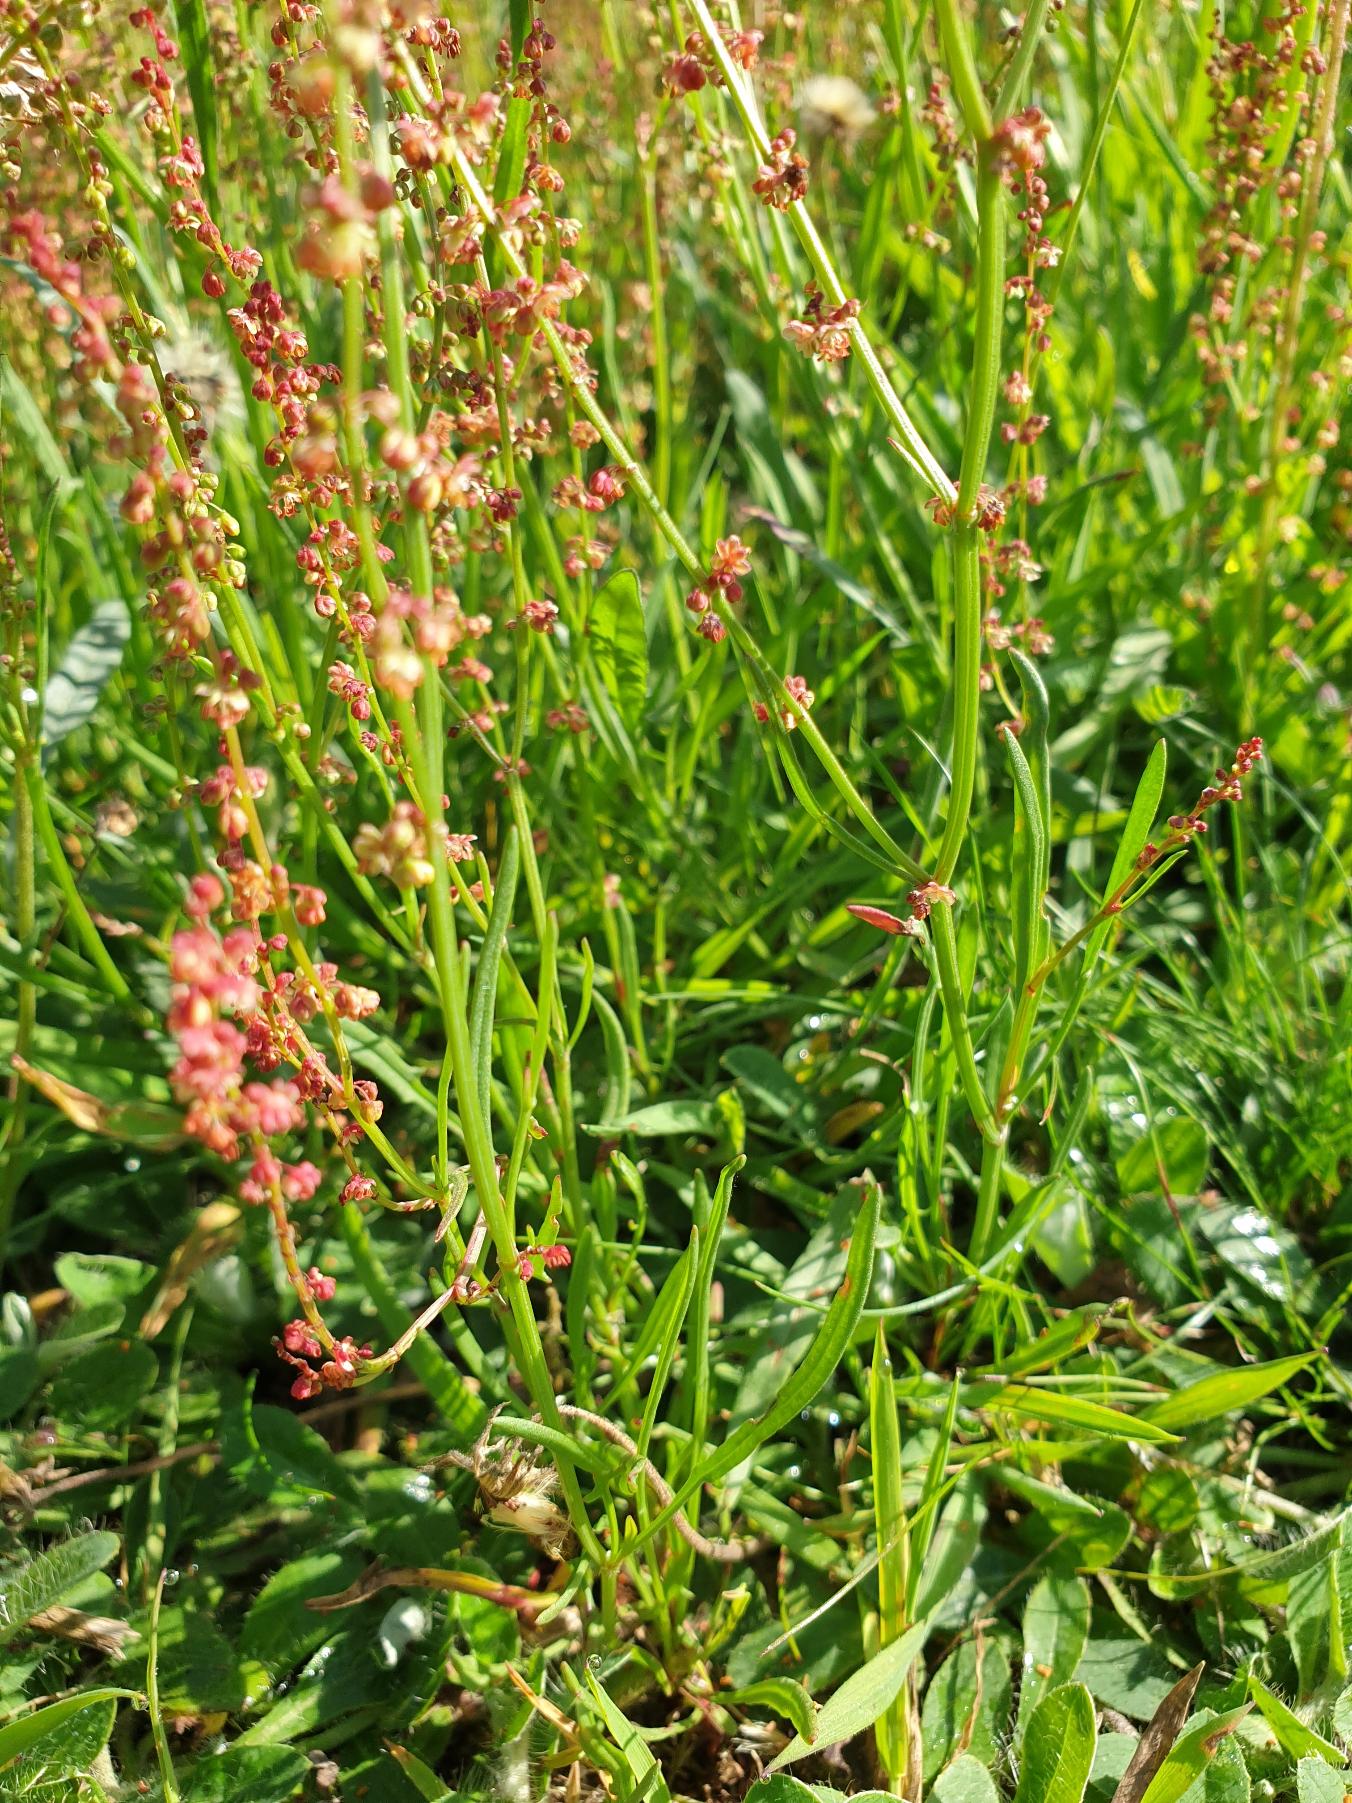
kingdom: Plantae
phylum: Tracheophyta
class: Magnoliopsida
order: Caryophyllales
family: Polygonaceae
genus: Rumex
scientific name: Rumex acetosella
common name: Rødknæ
